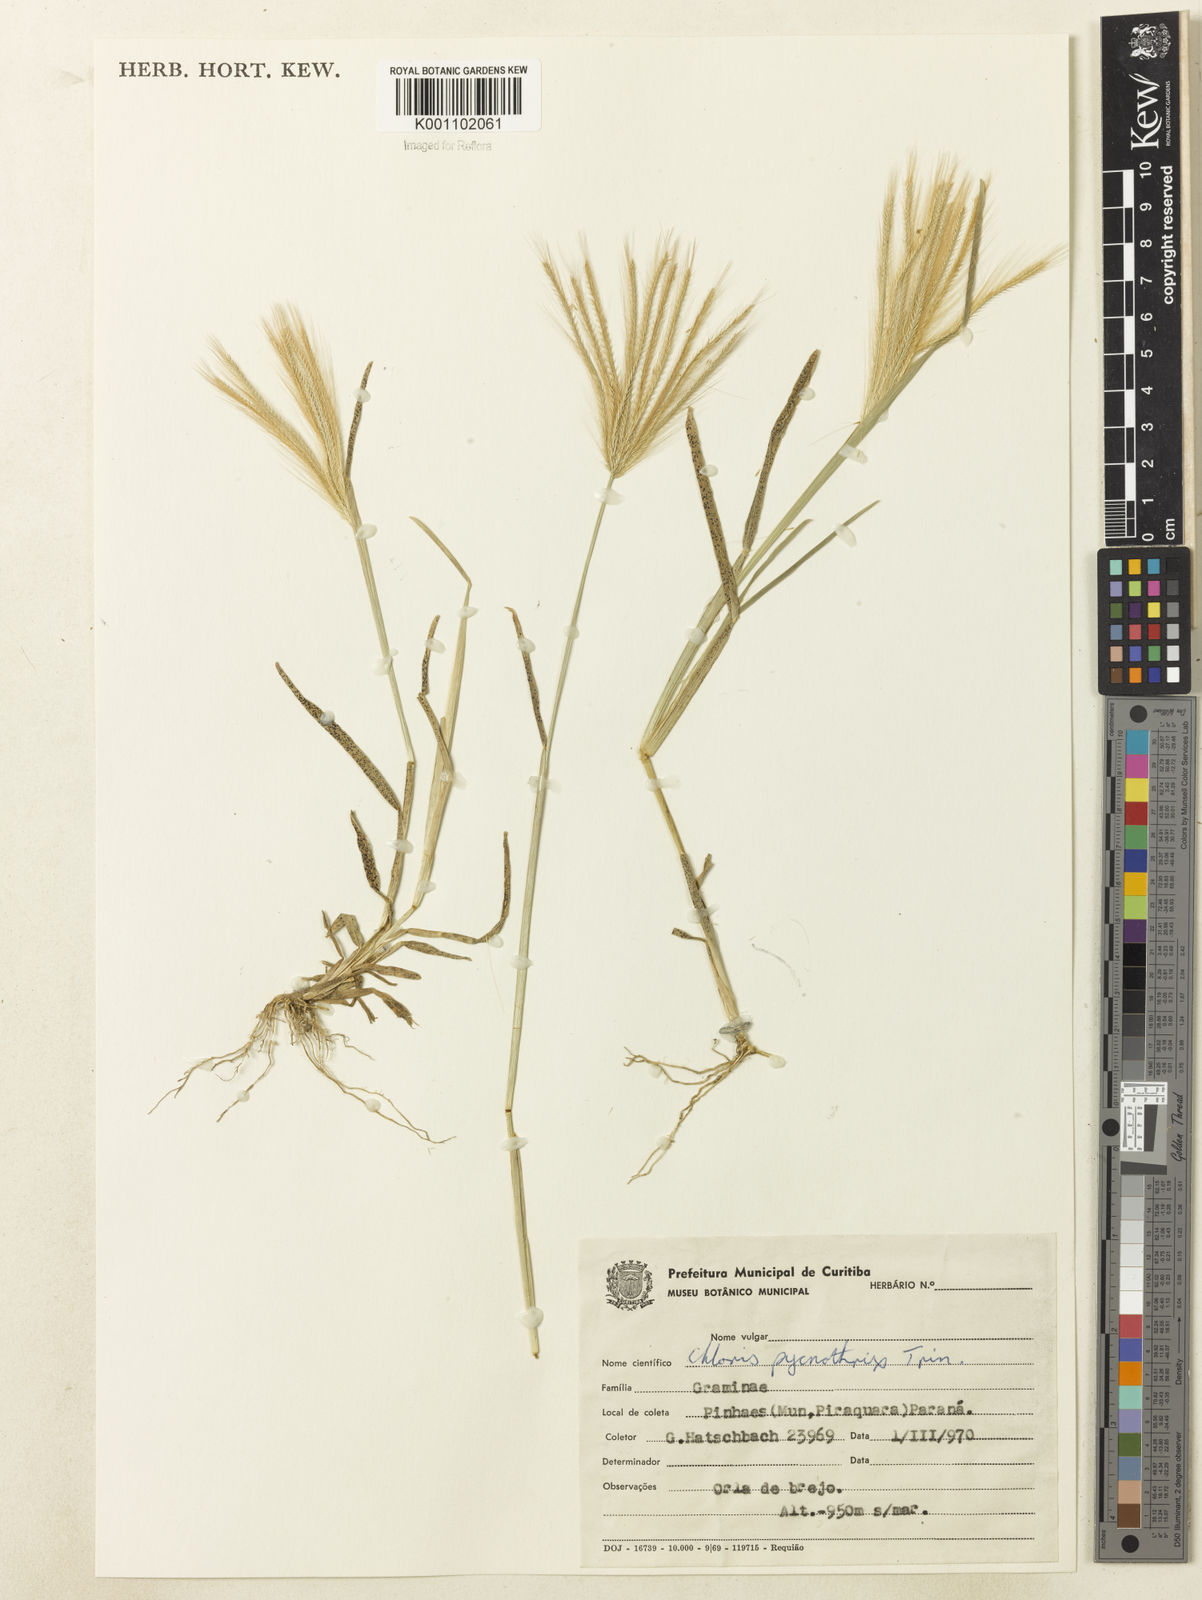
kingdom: Plantae
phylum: Tracheophyta
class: Liliopsida
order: Poales
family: Poaceae
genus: Chloris
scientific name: Chloris pycnothrix
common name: Spiderweb chloris
